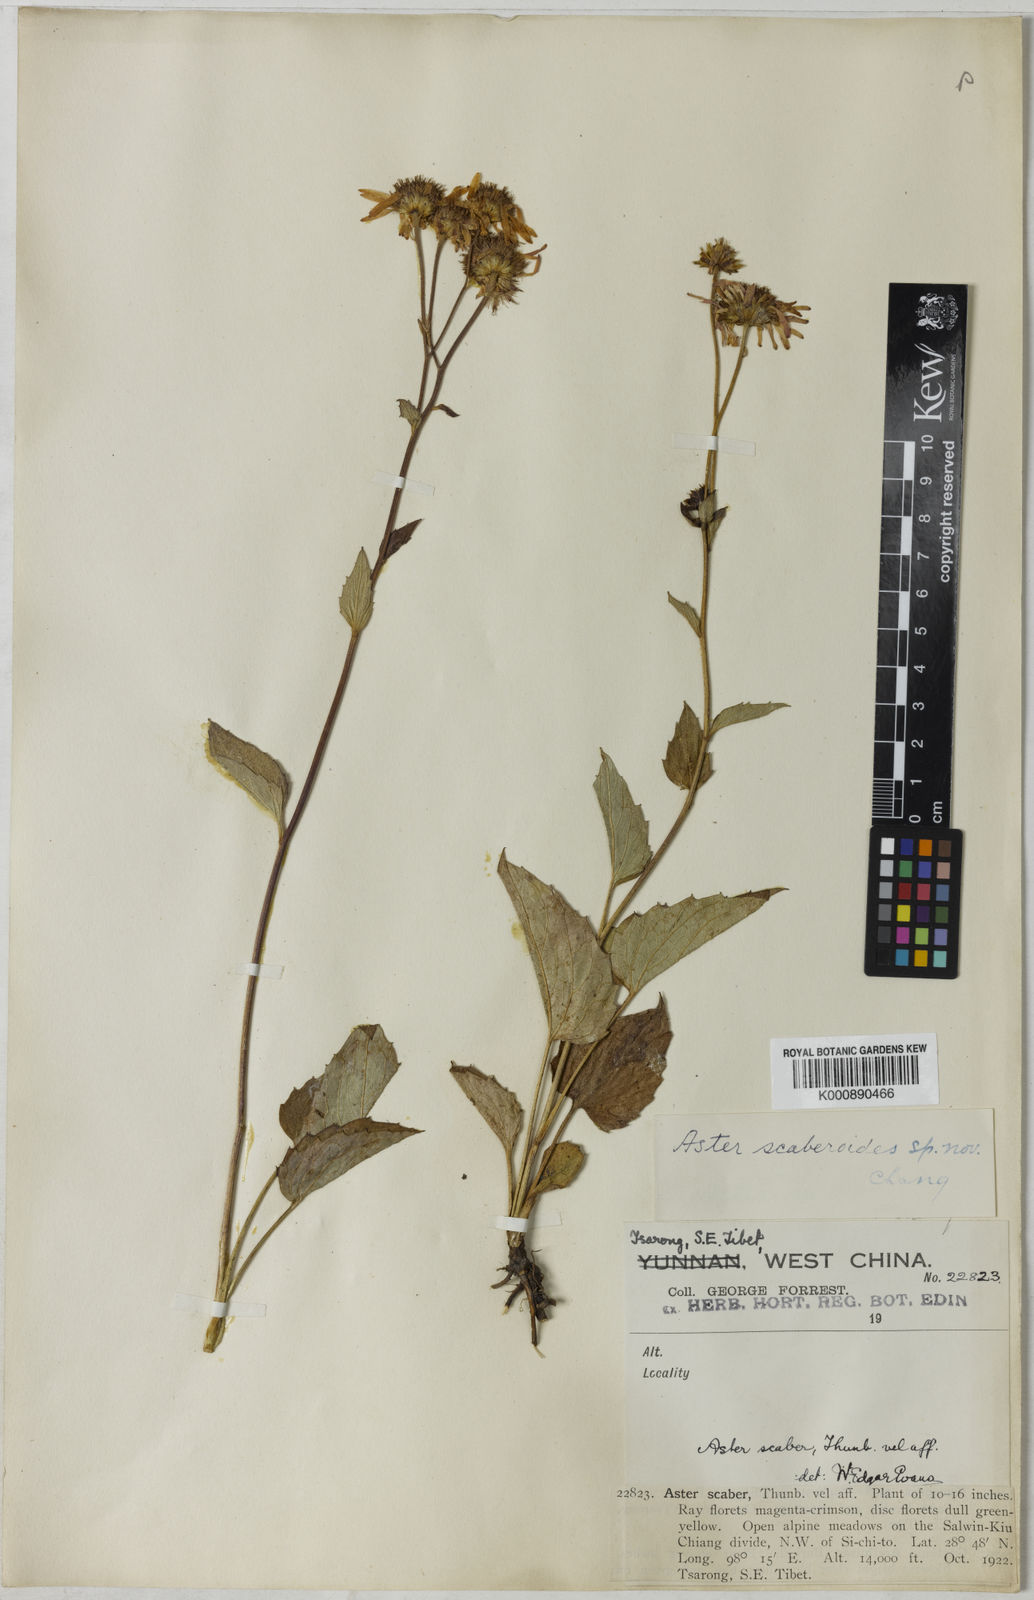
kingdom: Plantae
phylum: Tracheophyta
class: Magnoliopsida
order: Asterales
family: Asteraceae
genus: Griersonia
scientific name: Griersonia fuscescens
